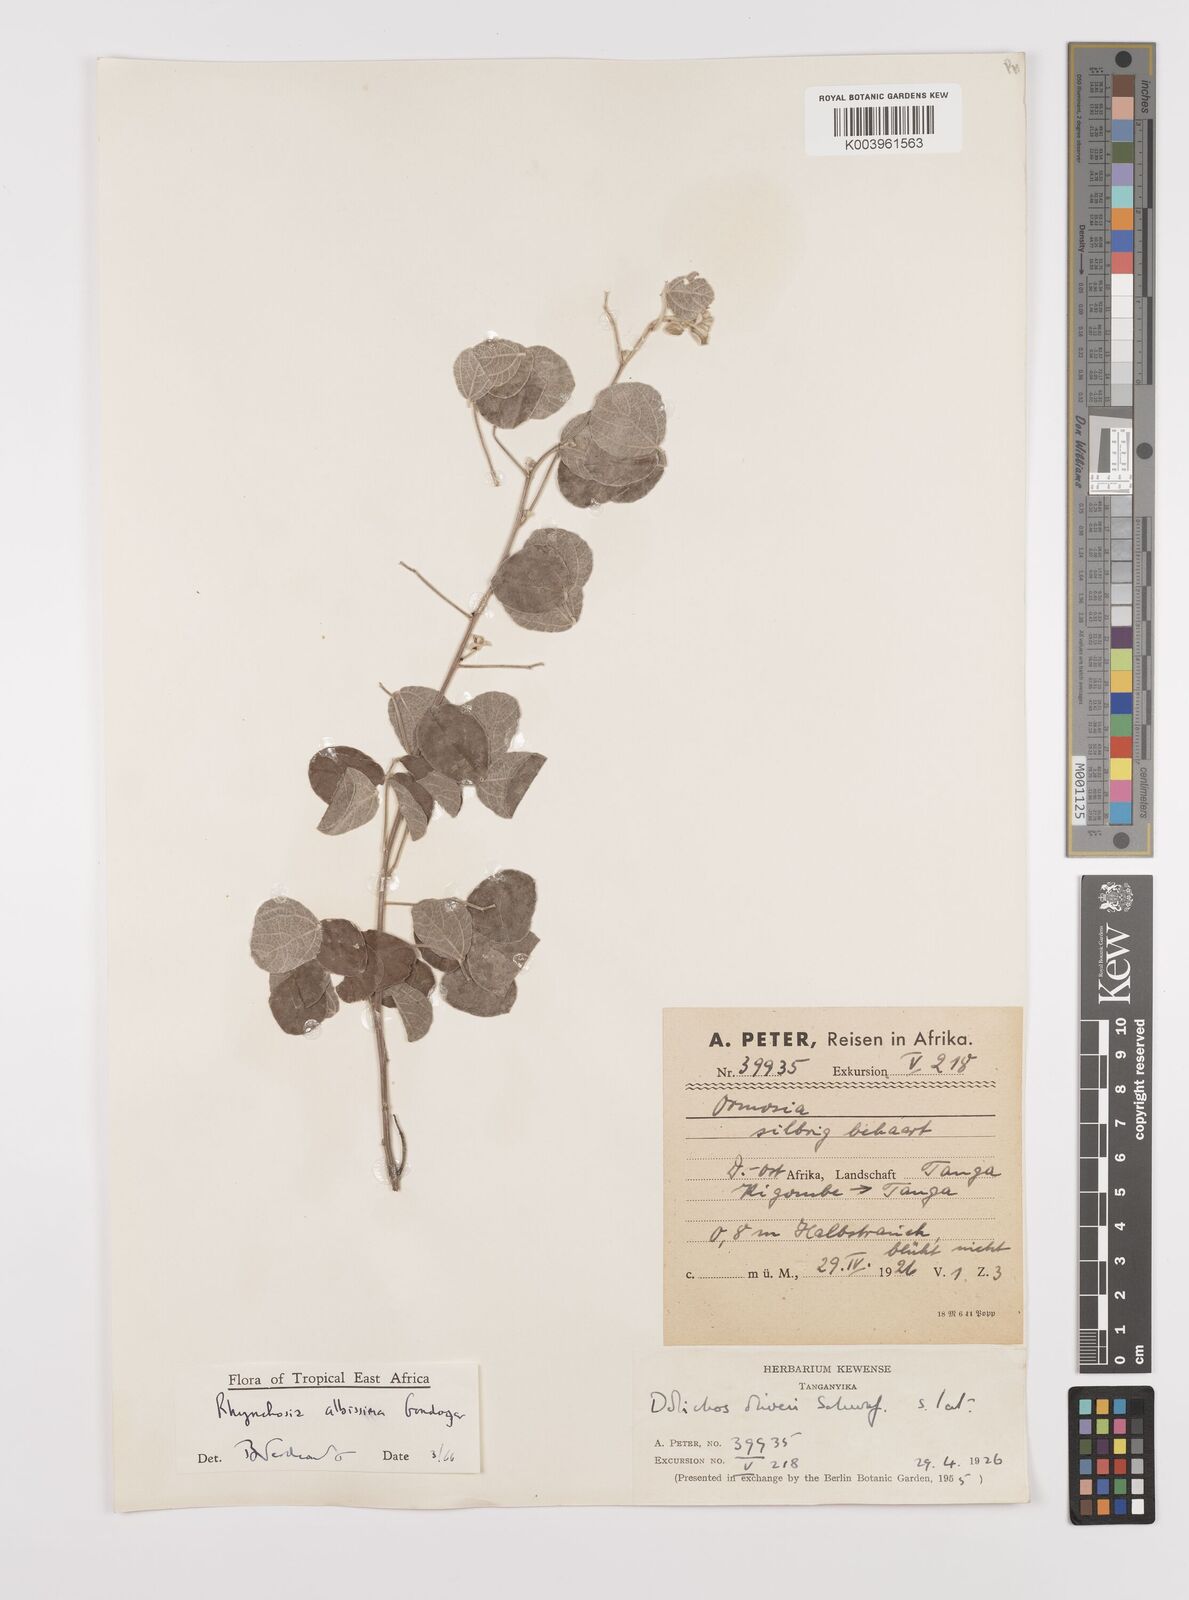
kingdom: Plantae
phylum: Tracheophyta
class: Magnoliopsida
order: Fabales
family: Fabaceae
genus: Rhynchosia
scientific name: Rhynchosia albissima
